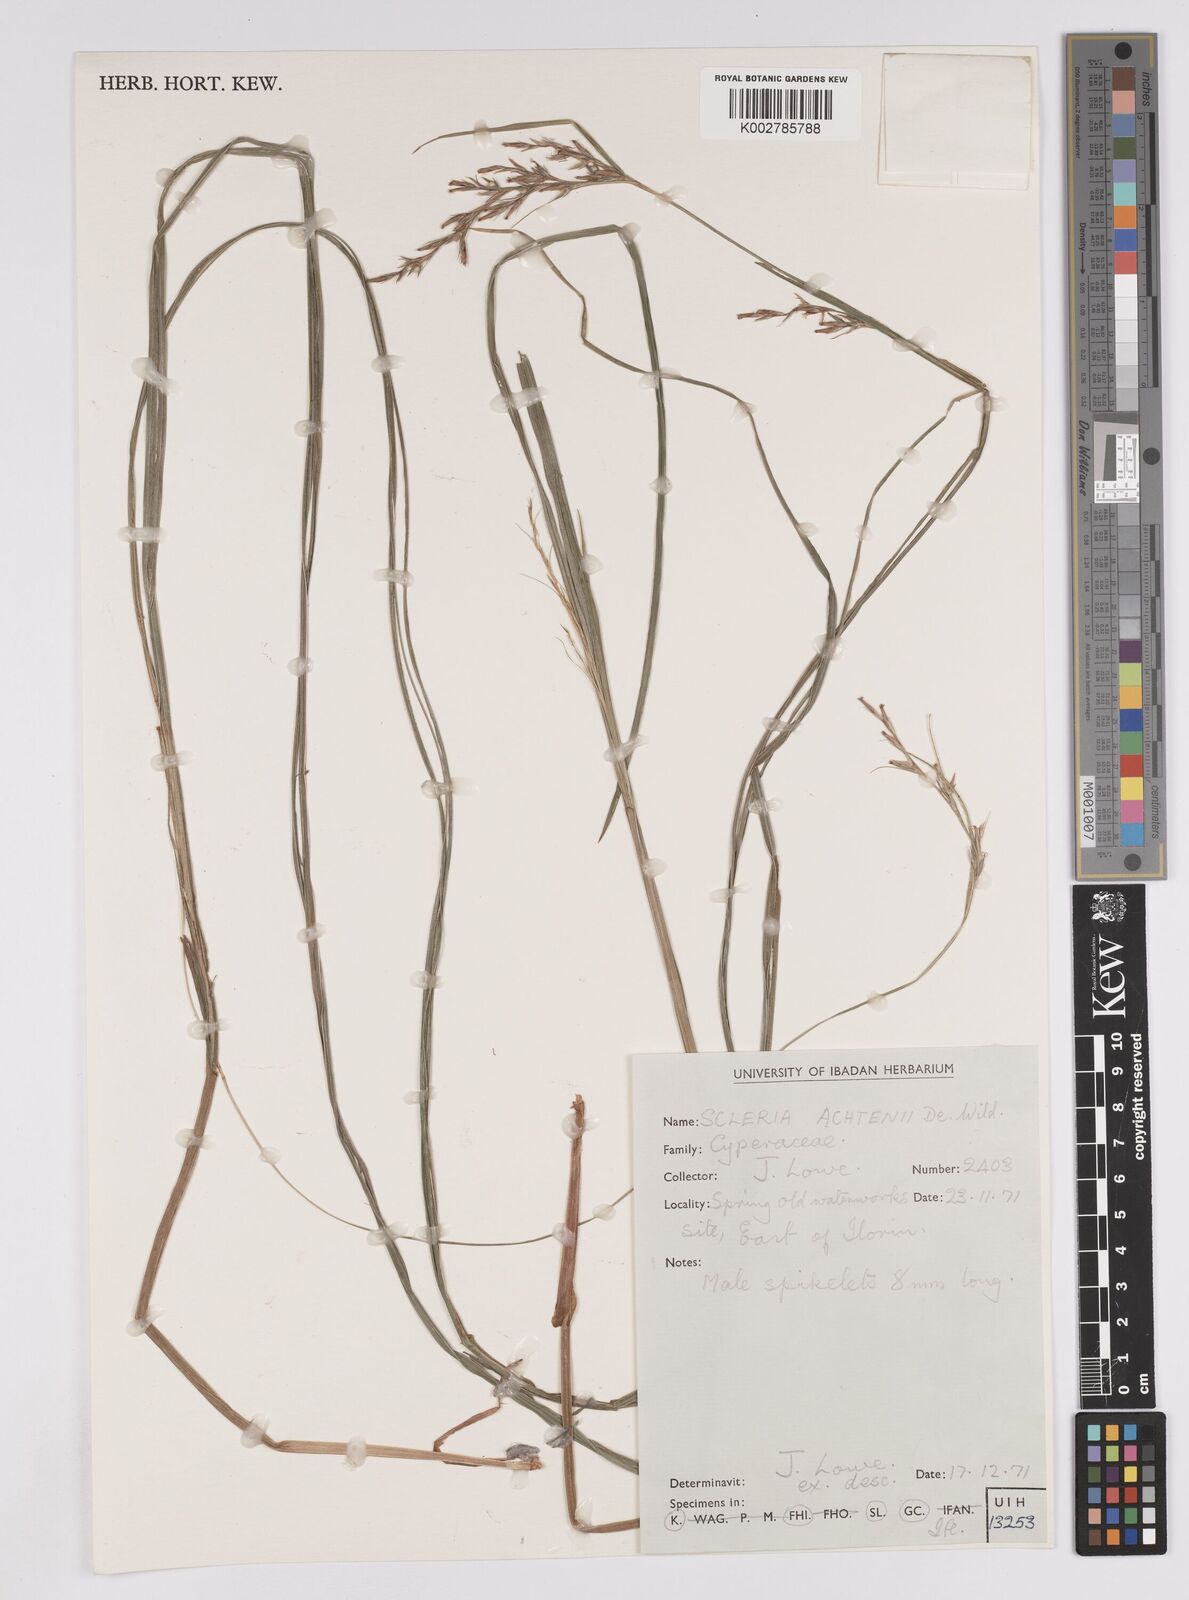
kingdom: Plantae
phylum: Tracheophyta
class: Liliopsida
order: Poales
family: Cyperaceae
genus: Scleria
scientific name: Scleria achtenii
